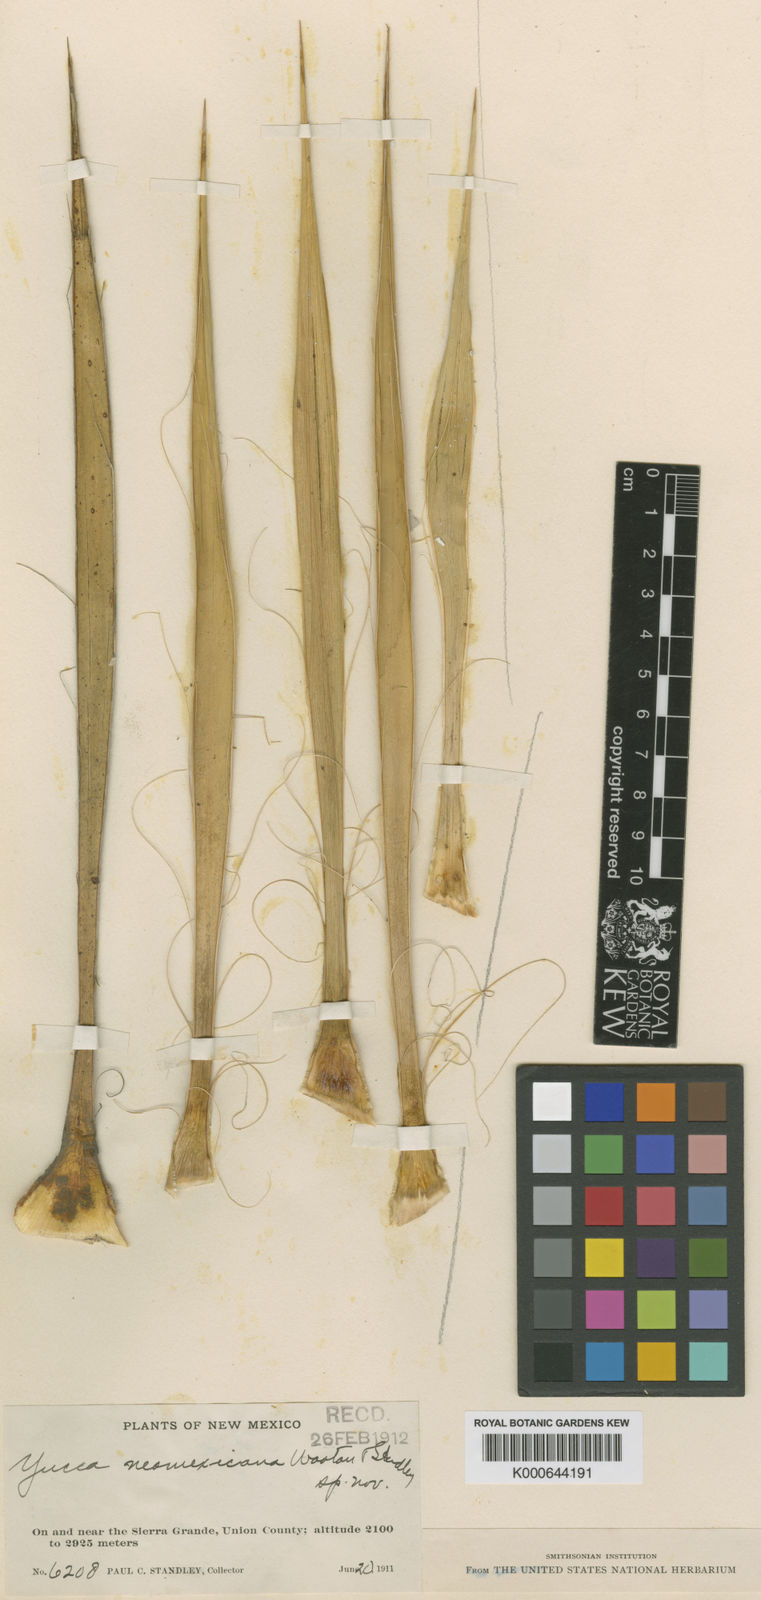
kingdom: Plantae
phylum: Tracheophyta
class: Liliopsida
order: Asparagales
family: Asparagaceae
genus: Yucca
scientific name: Yucca neomexicana
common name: New mexico yucca
